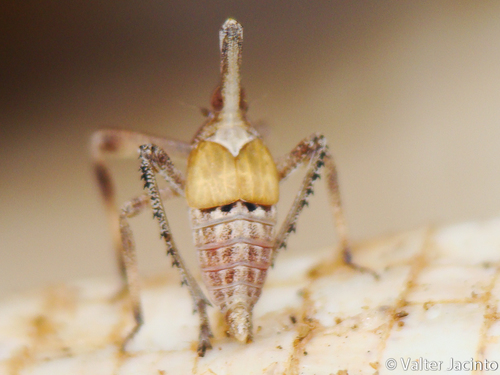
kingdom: Animalia
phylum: Arthropoda
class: Insecta
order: Hemiptera
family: Dictyopharidae
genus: Almana
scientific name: Almana longipes
